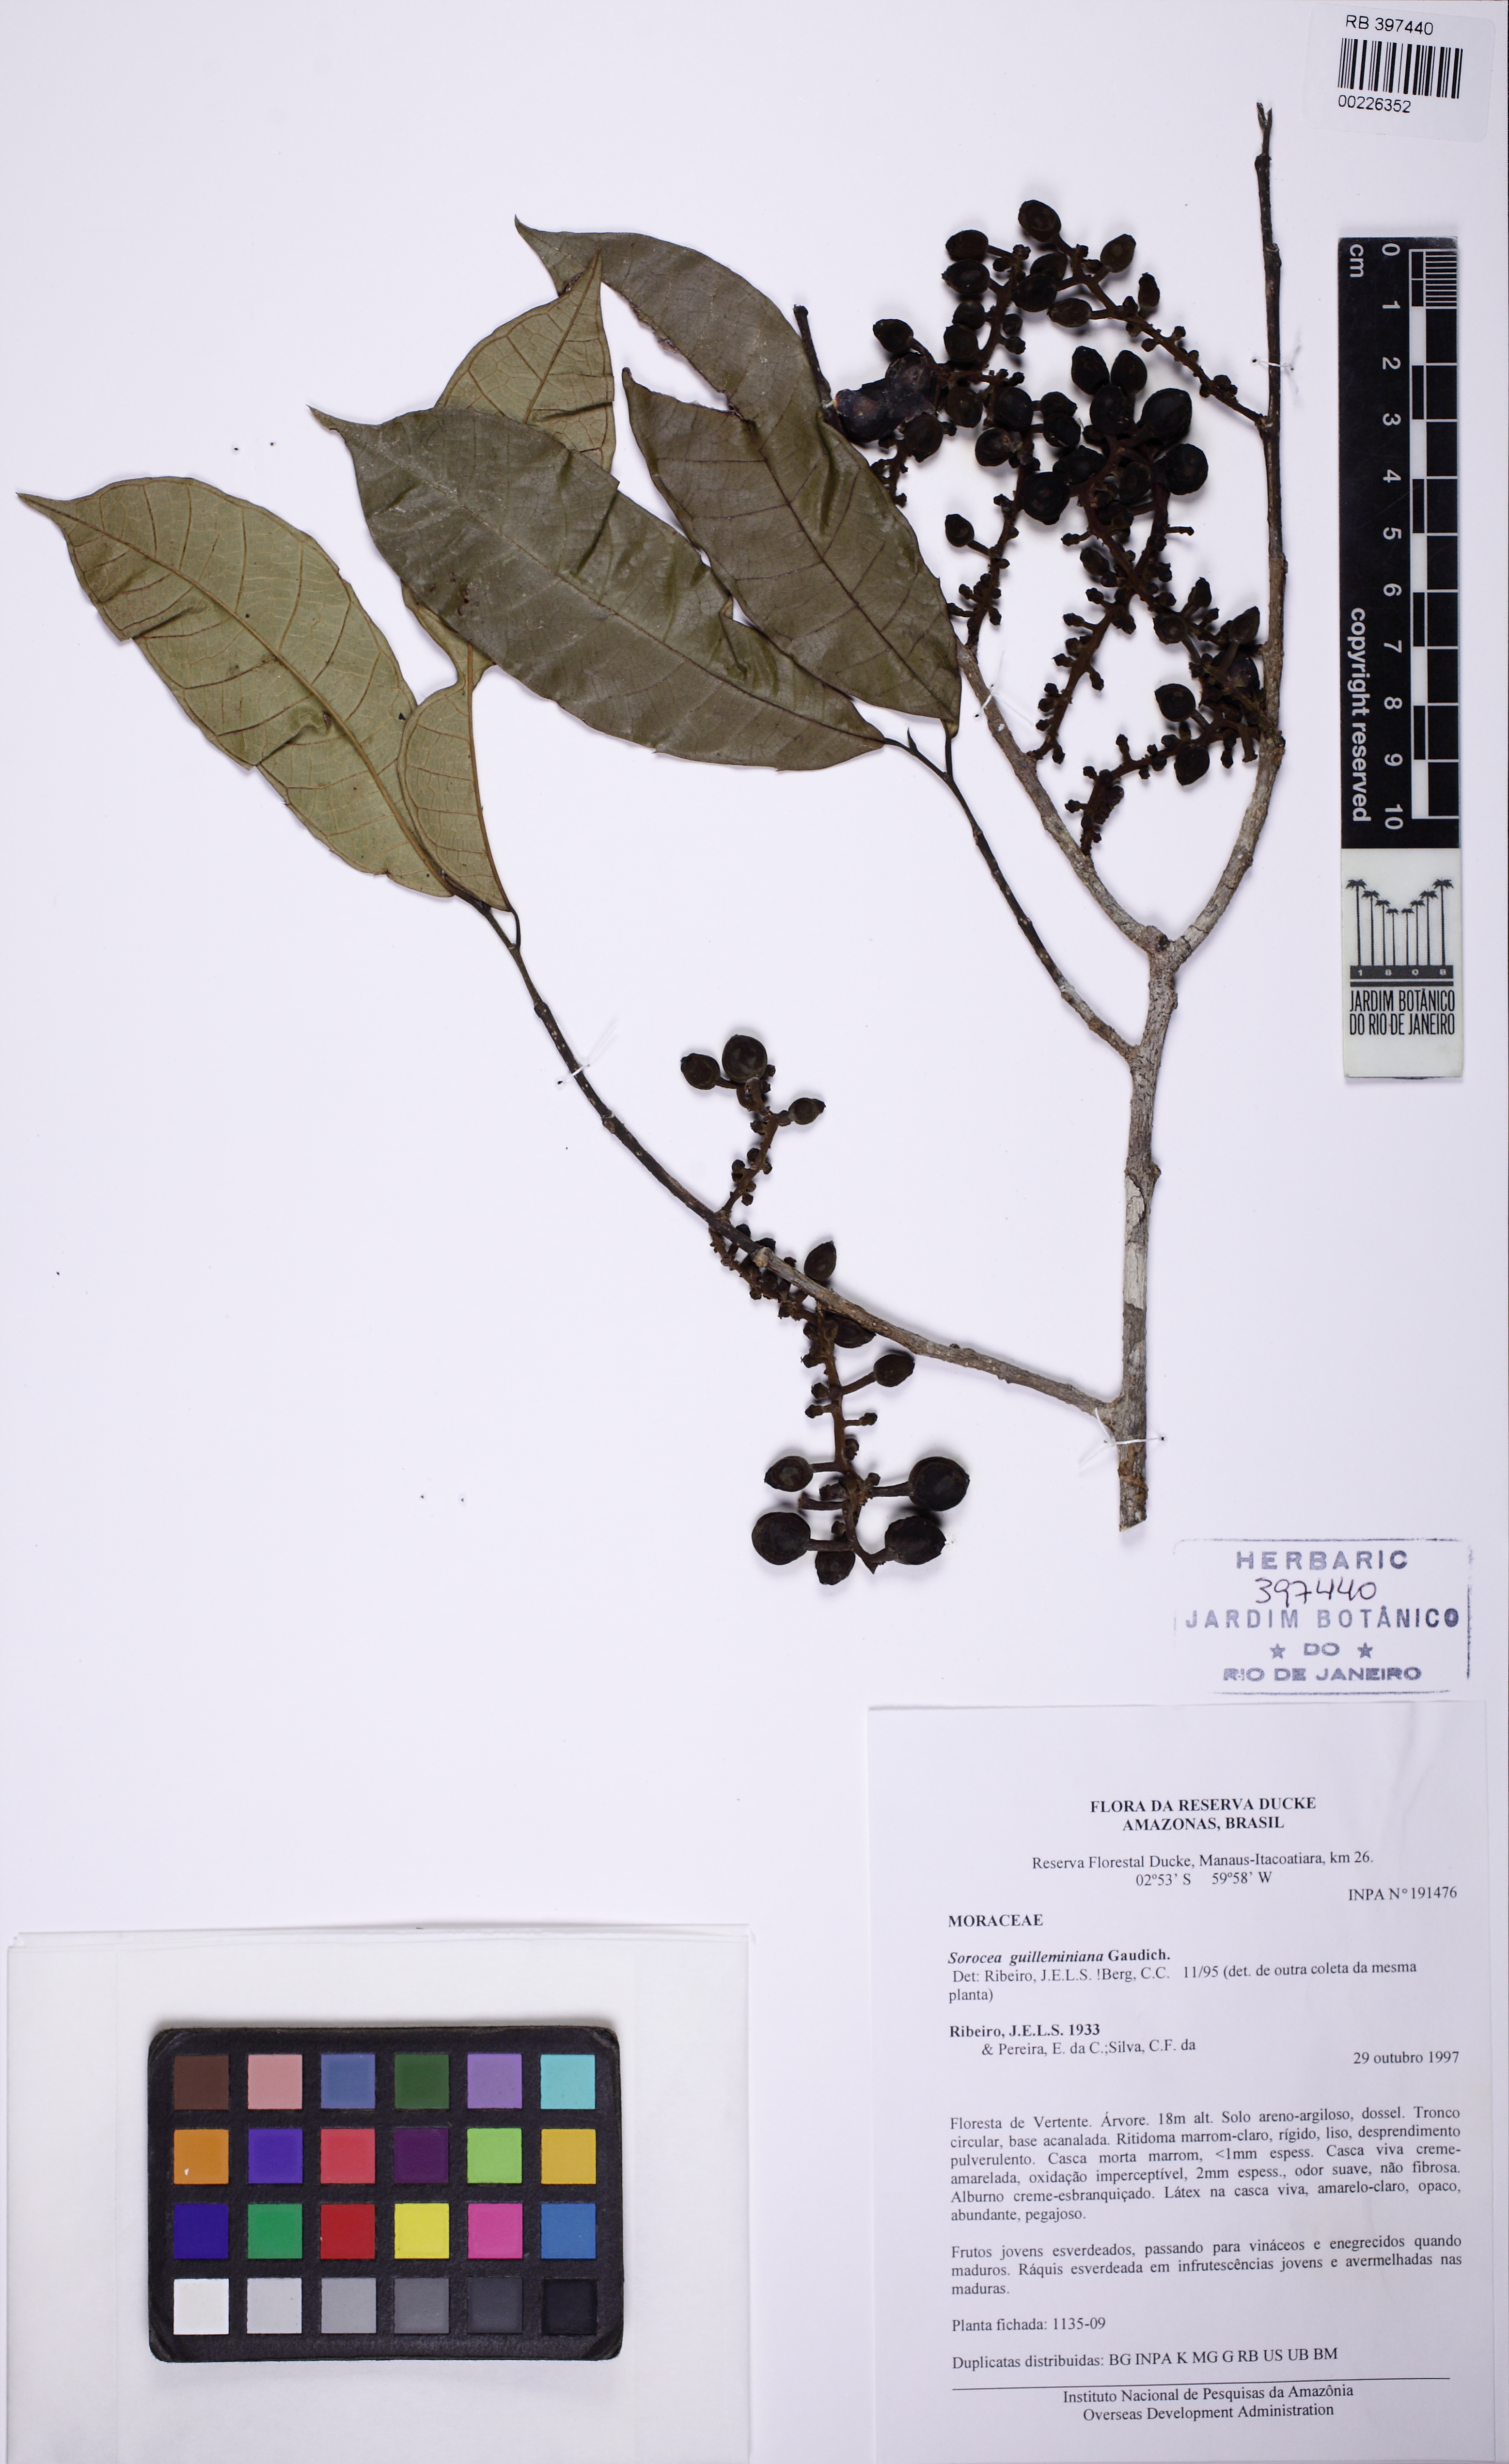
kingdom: Plantae
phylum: Tracheophyta
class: Magnoliopsida
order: Rosales
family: Moraceae
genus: Sorocea
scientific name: Sorocea guilleminiana
